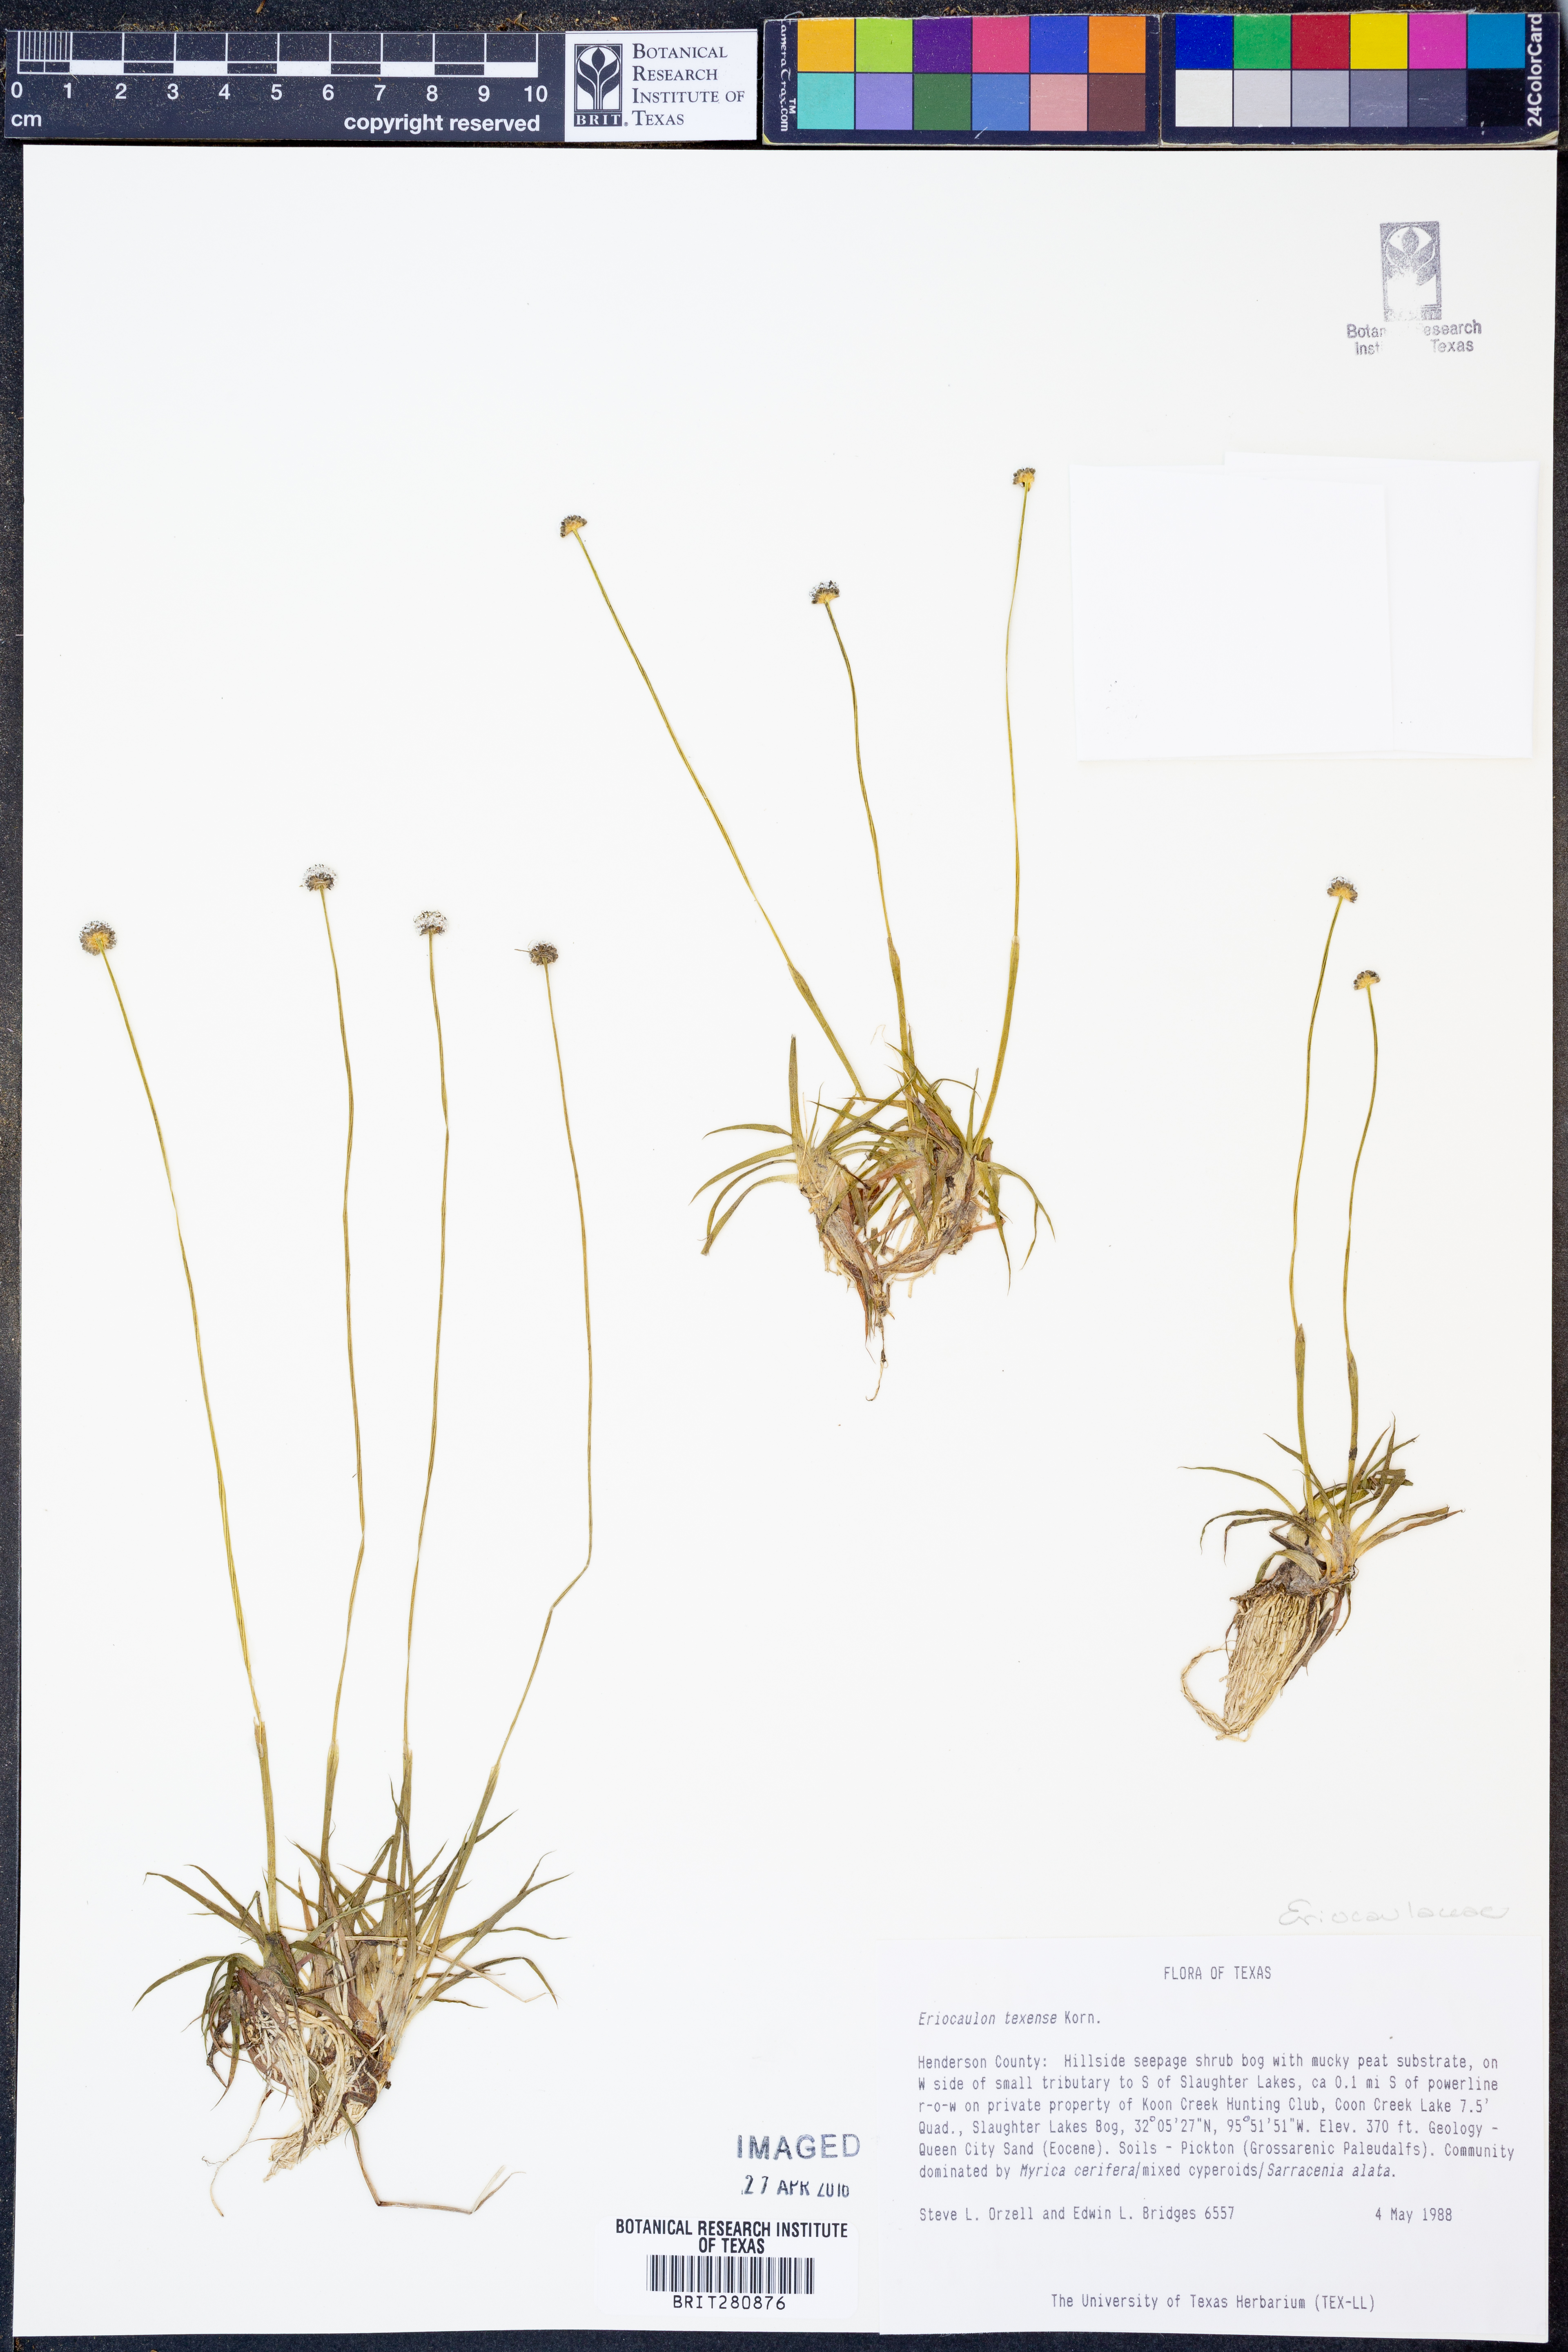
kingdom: Plantae
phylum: Tracheophyta
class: Liliopsida
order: Poales
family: Eriocaulaceae
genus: Eriocaulon
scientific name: Eriocaulon texense
